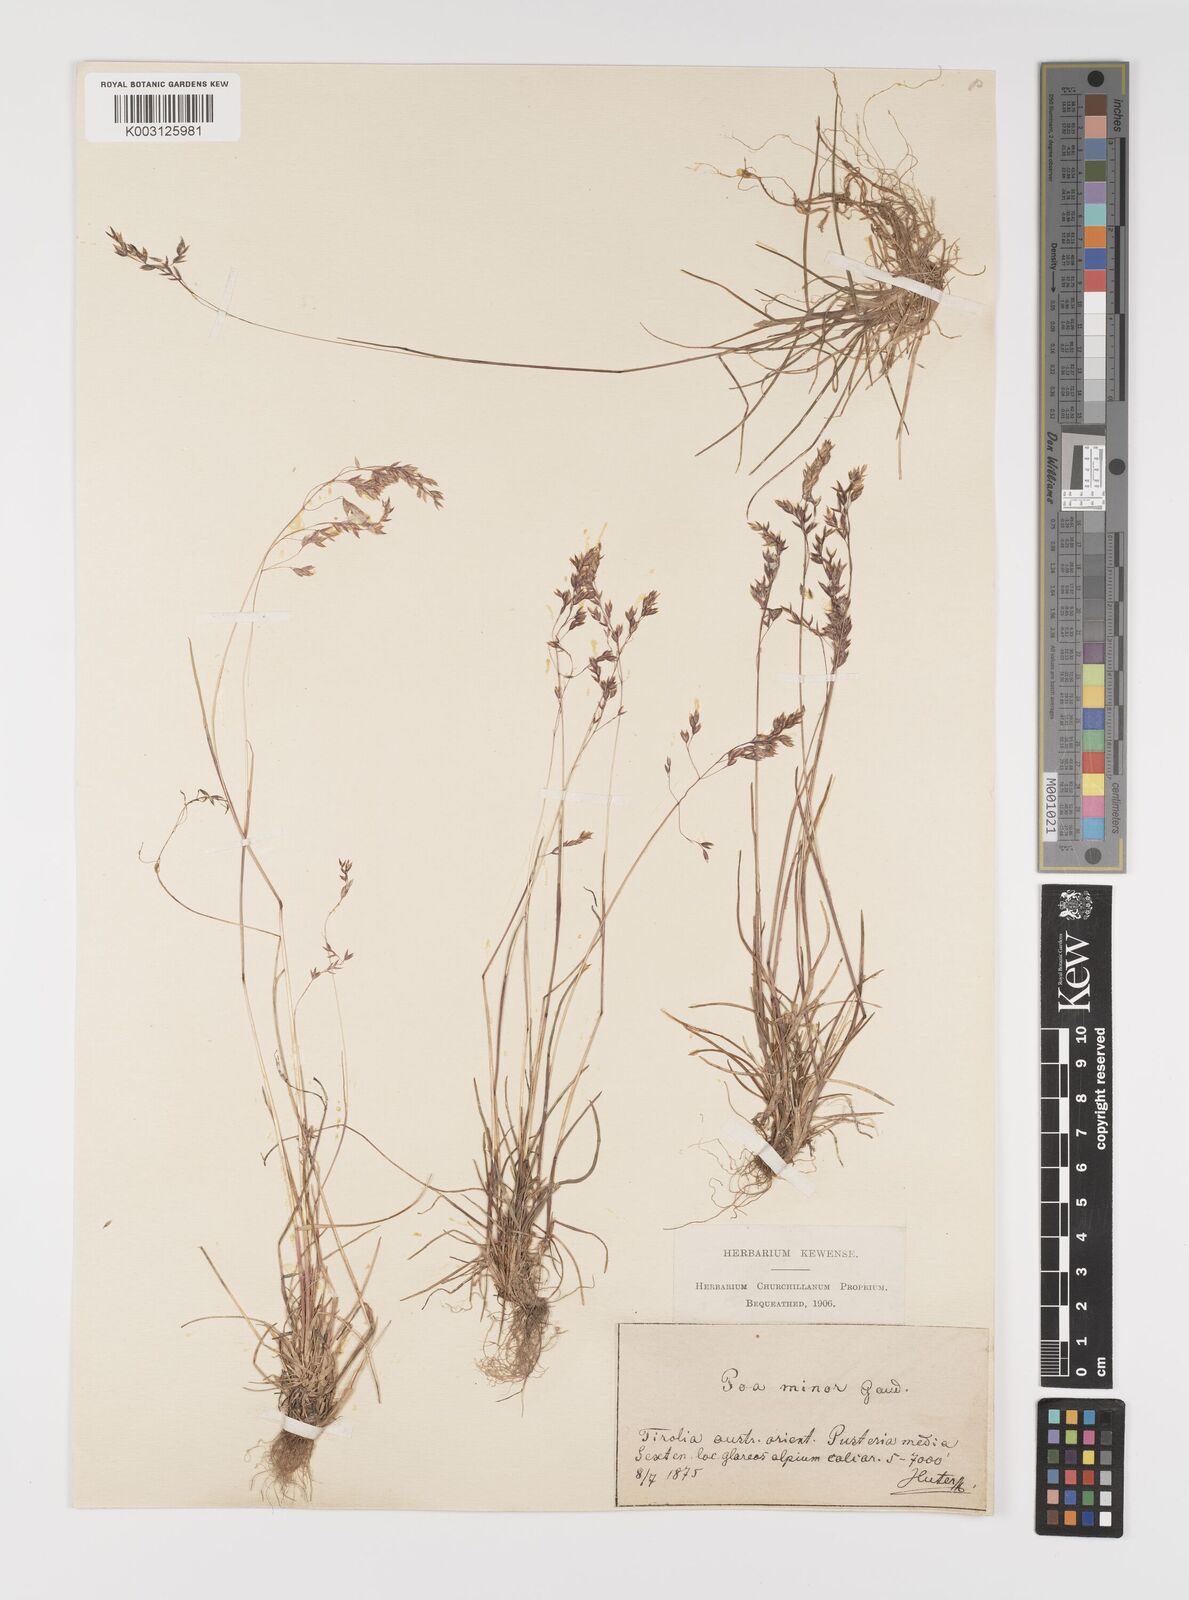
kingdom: Plantae
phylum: Tracheophyta
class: Liliopsida
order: Poales
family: Poaceae
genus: Poa
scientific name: Poa minor
